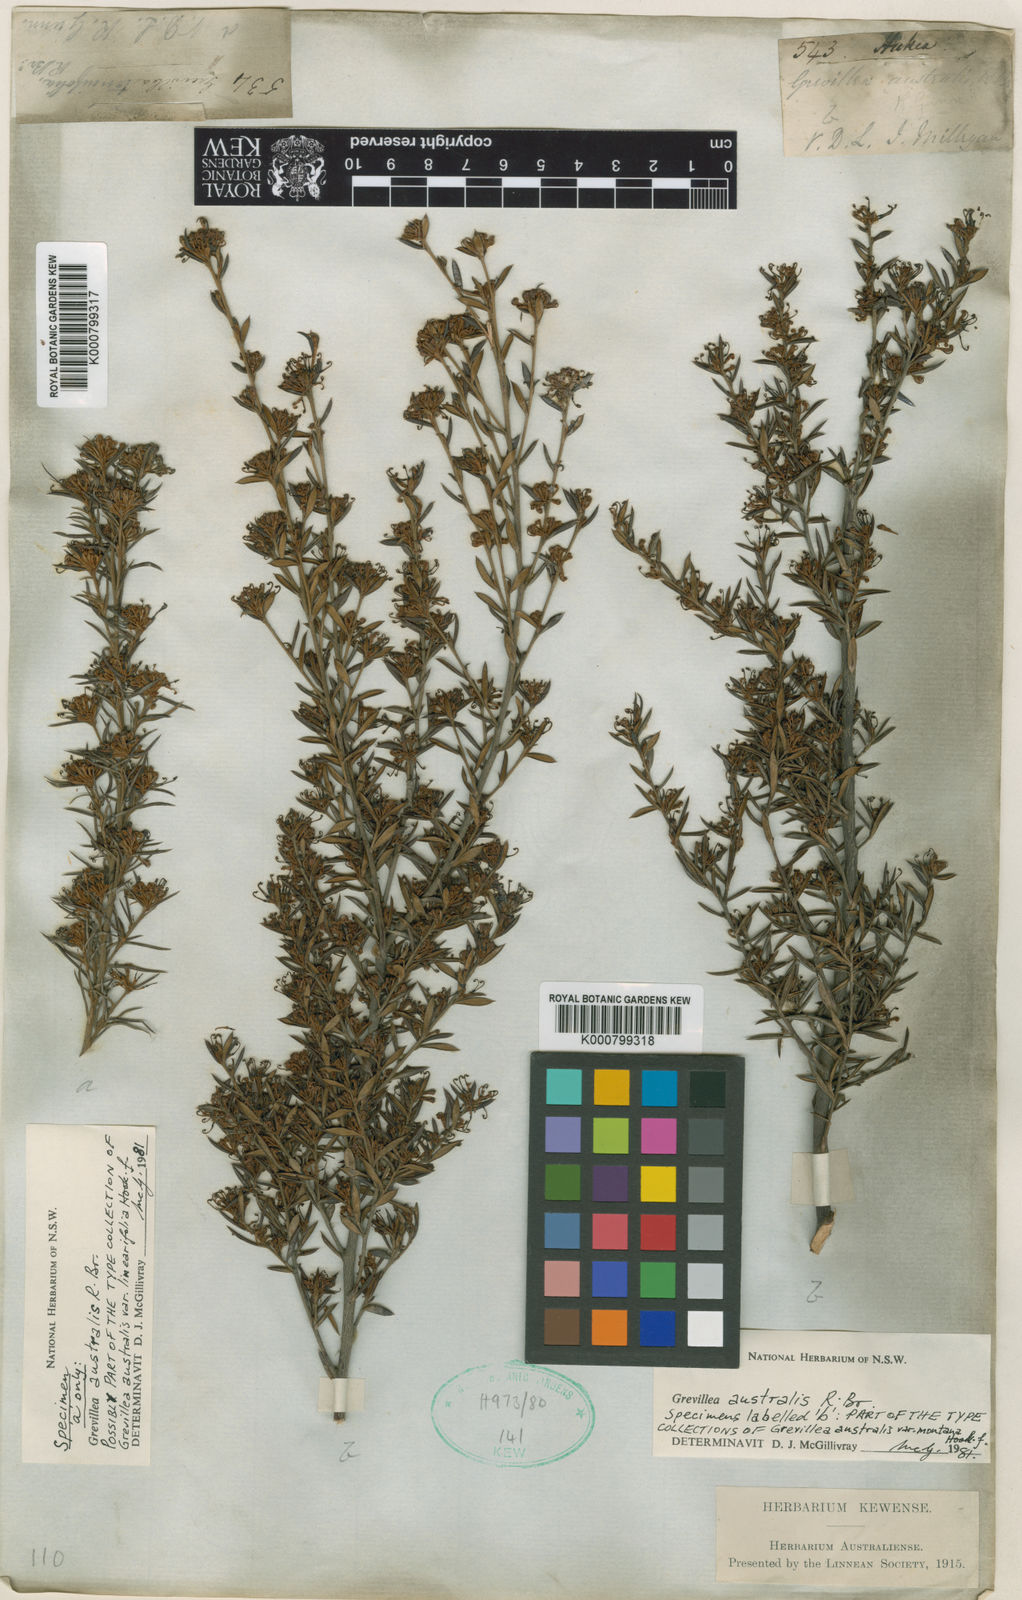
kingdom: Plantae
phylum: Tracheophyta
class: Magnoliopsida
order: Proteales
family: Proteaceae
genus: Grevillea
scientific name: Grevillea australis
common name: Alpine grevillea
